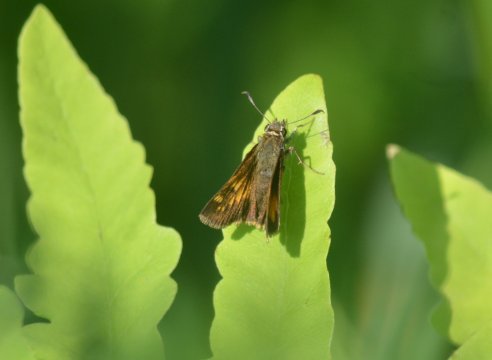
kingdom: Animalia
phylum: Arthropoda
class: Insecta
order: Lepidoptera
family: Hesperiidae
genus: Polites
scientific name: Polites
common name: Long Dash Skipper
